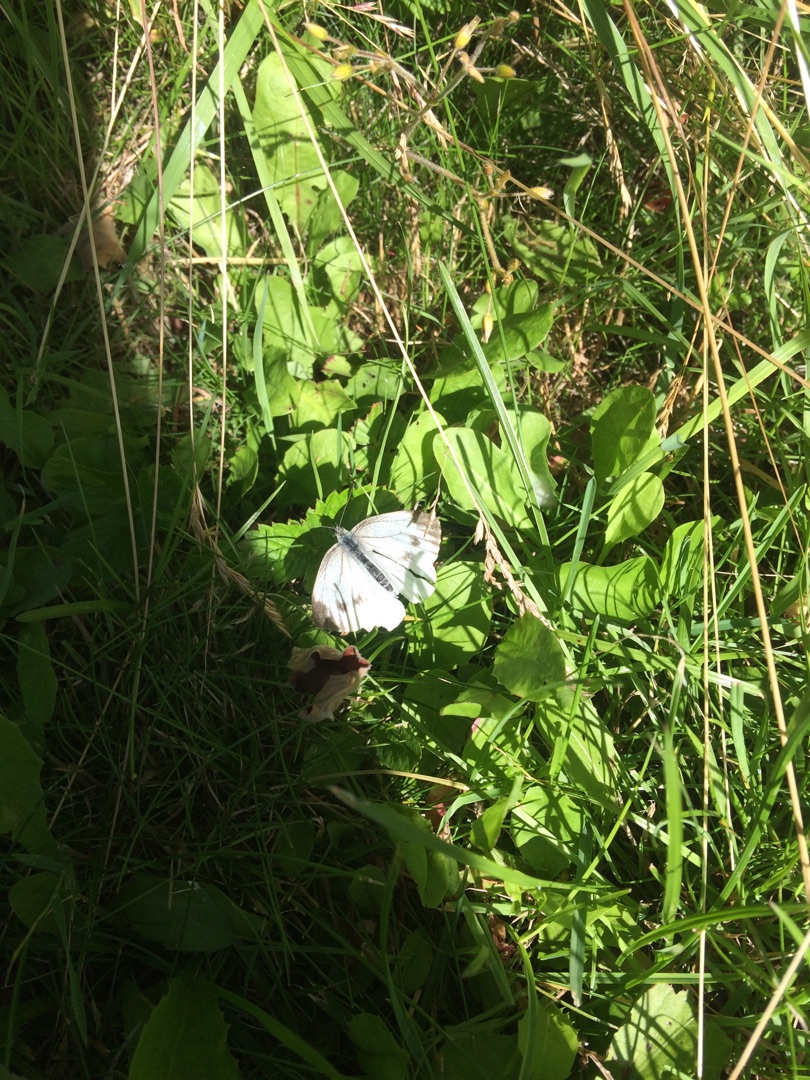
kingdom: Animalia
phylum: Arthropoda
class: Insecta
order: Lepidoptera
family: Pieridae
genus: Pieris
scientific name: Pieris napi
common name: Grønåret kålsommerfugl
